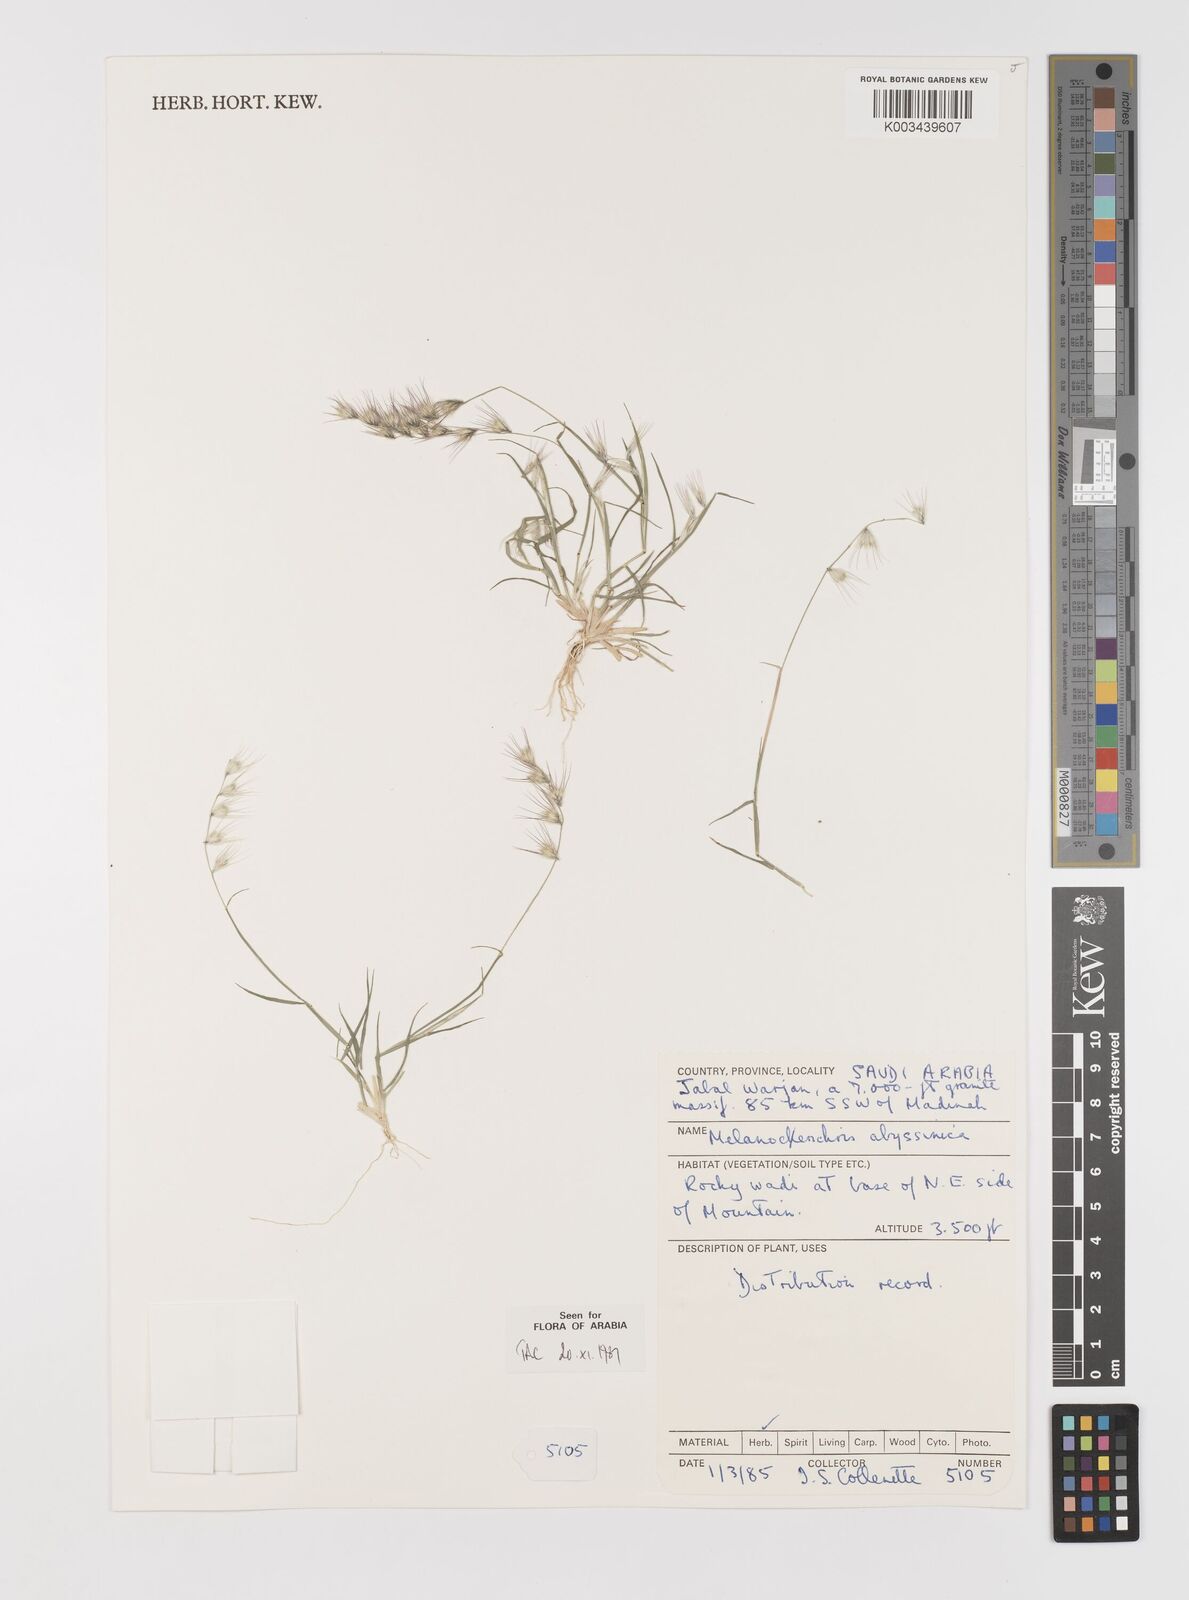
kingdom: Plantae
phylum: Tracheophyta
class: Liliopsida
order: Poales
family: Poaceae
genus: Melanocenchris
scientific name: Melanocenchris abyssinica
